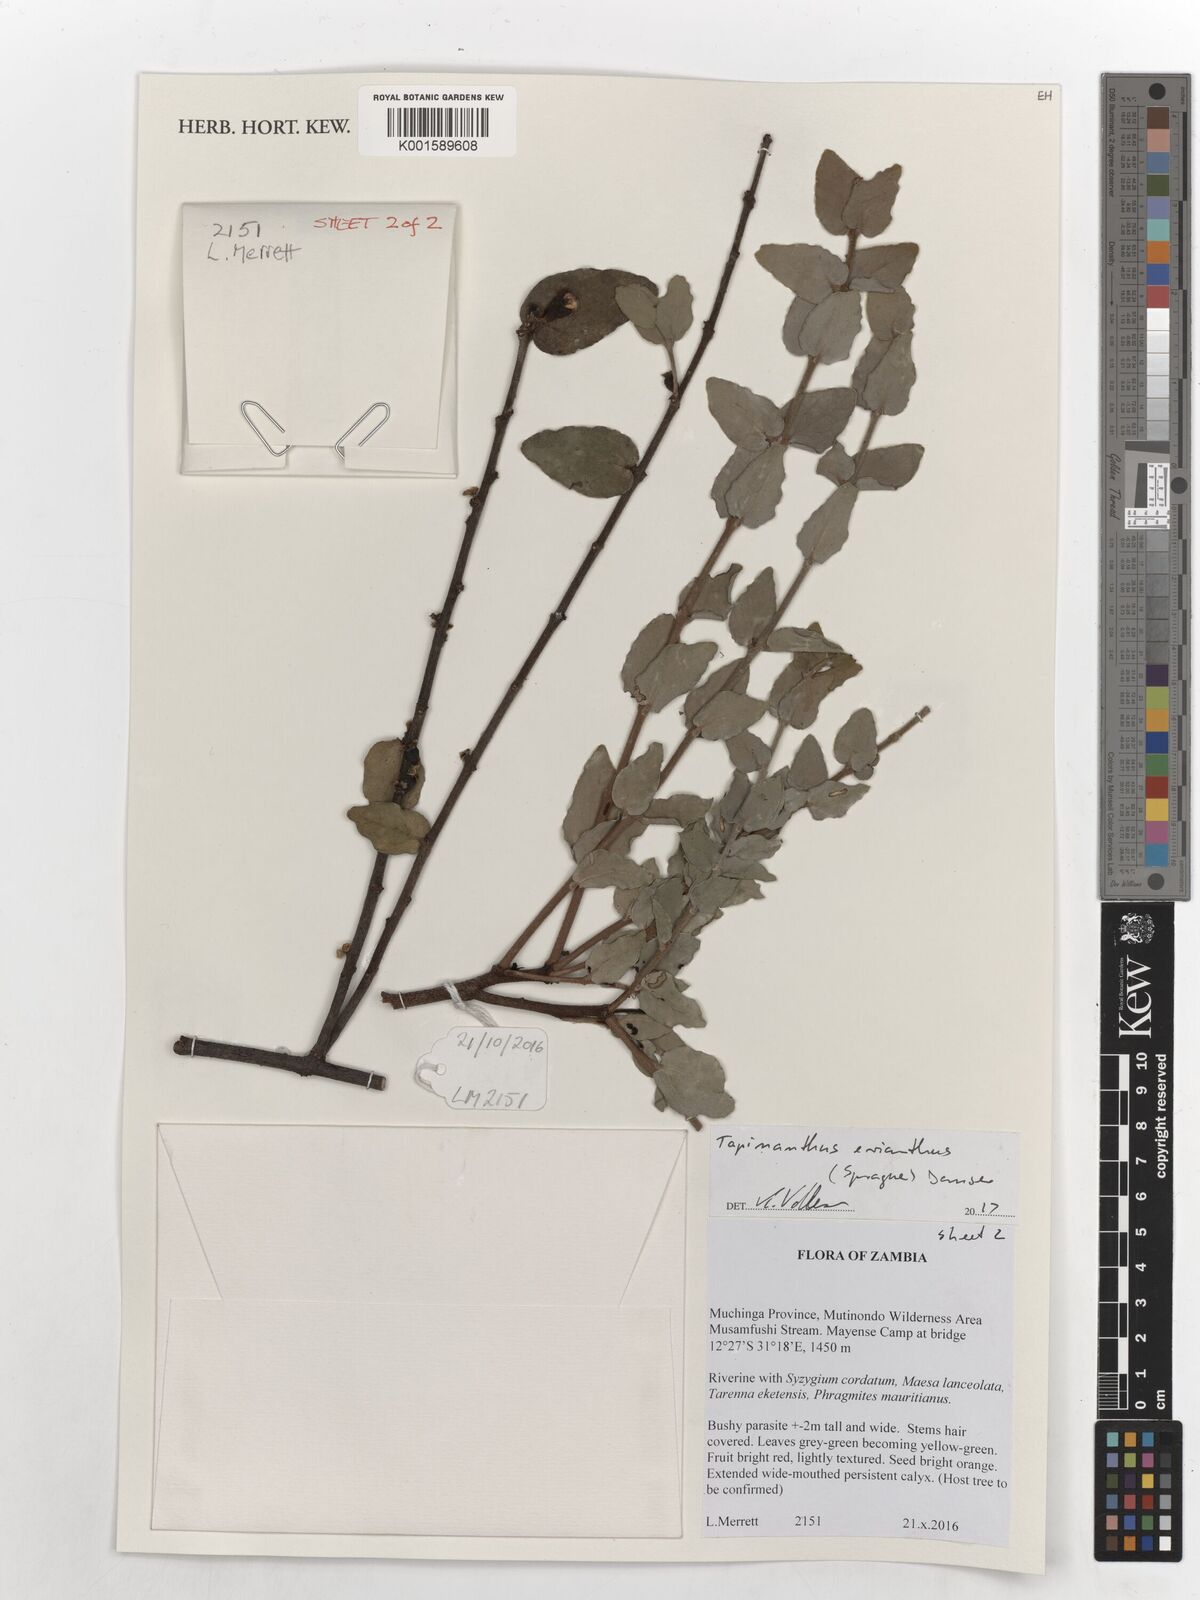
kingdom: Plantae
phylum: Tracheophyta
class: Magnoliopsida
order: Santalales
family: Loranthaceae
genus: Tapinanthus
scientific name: Tapinanthus erianthus
